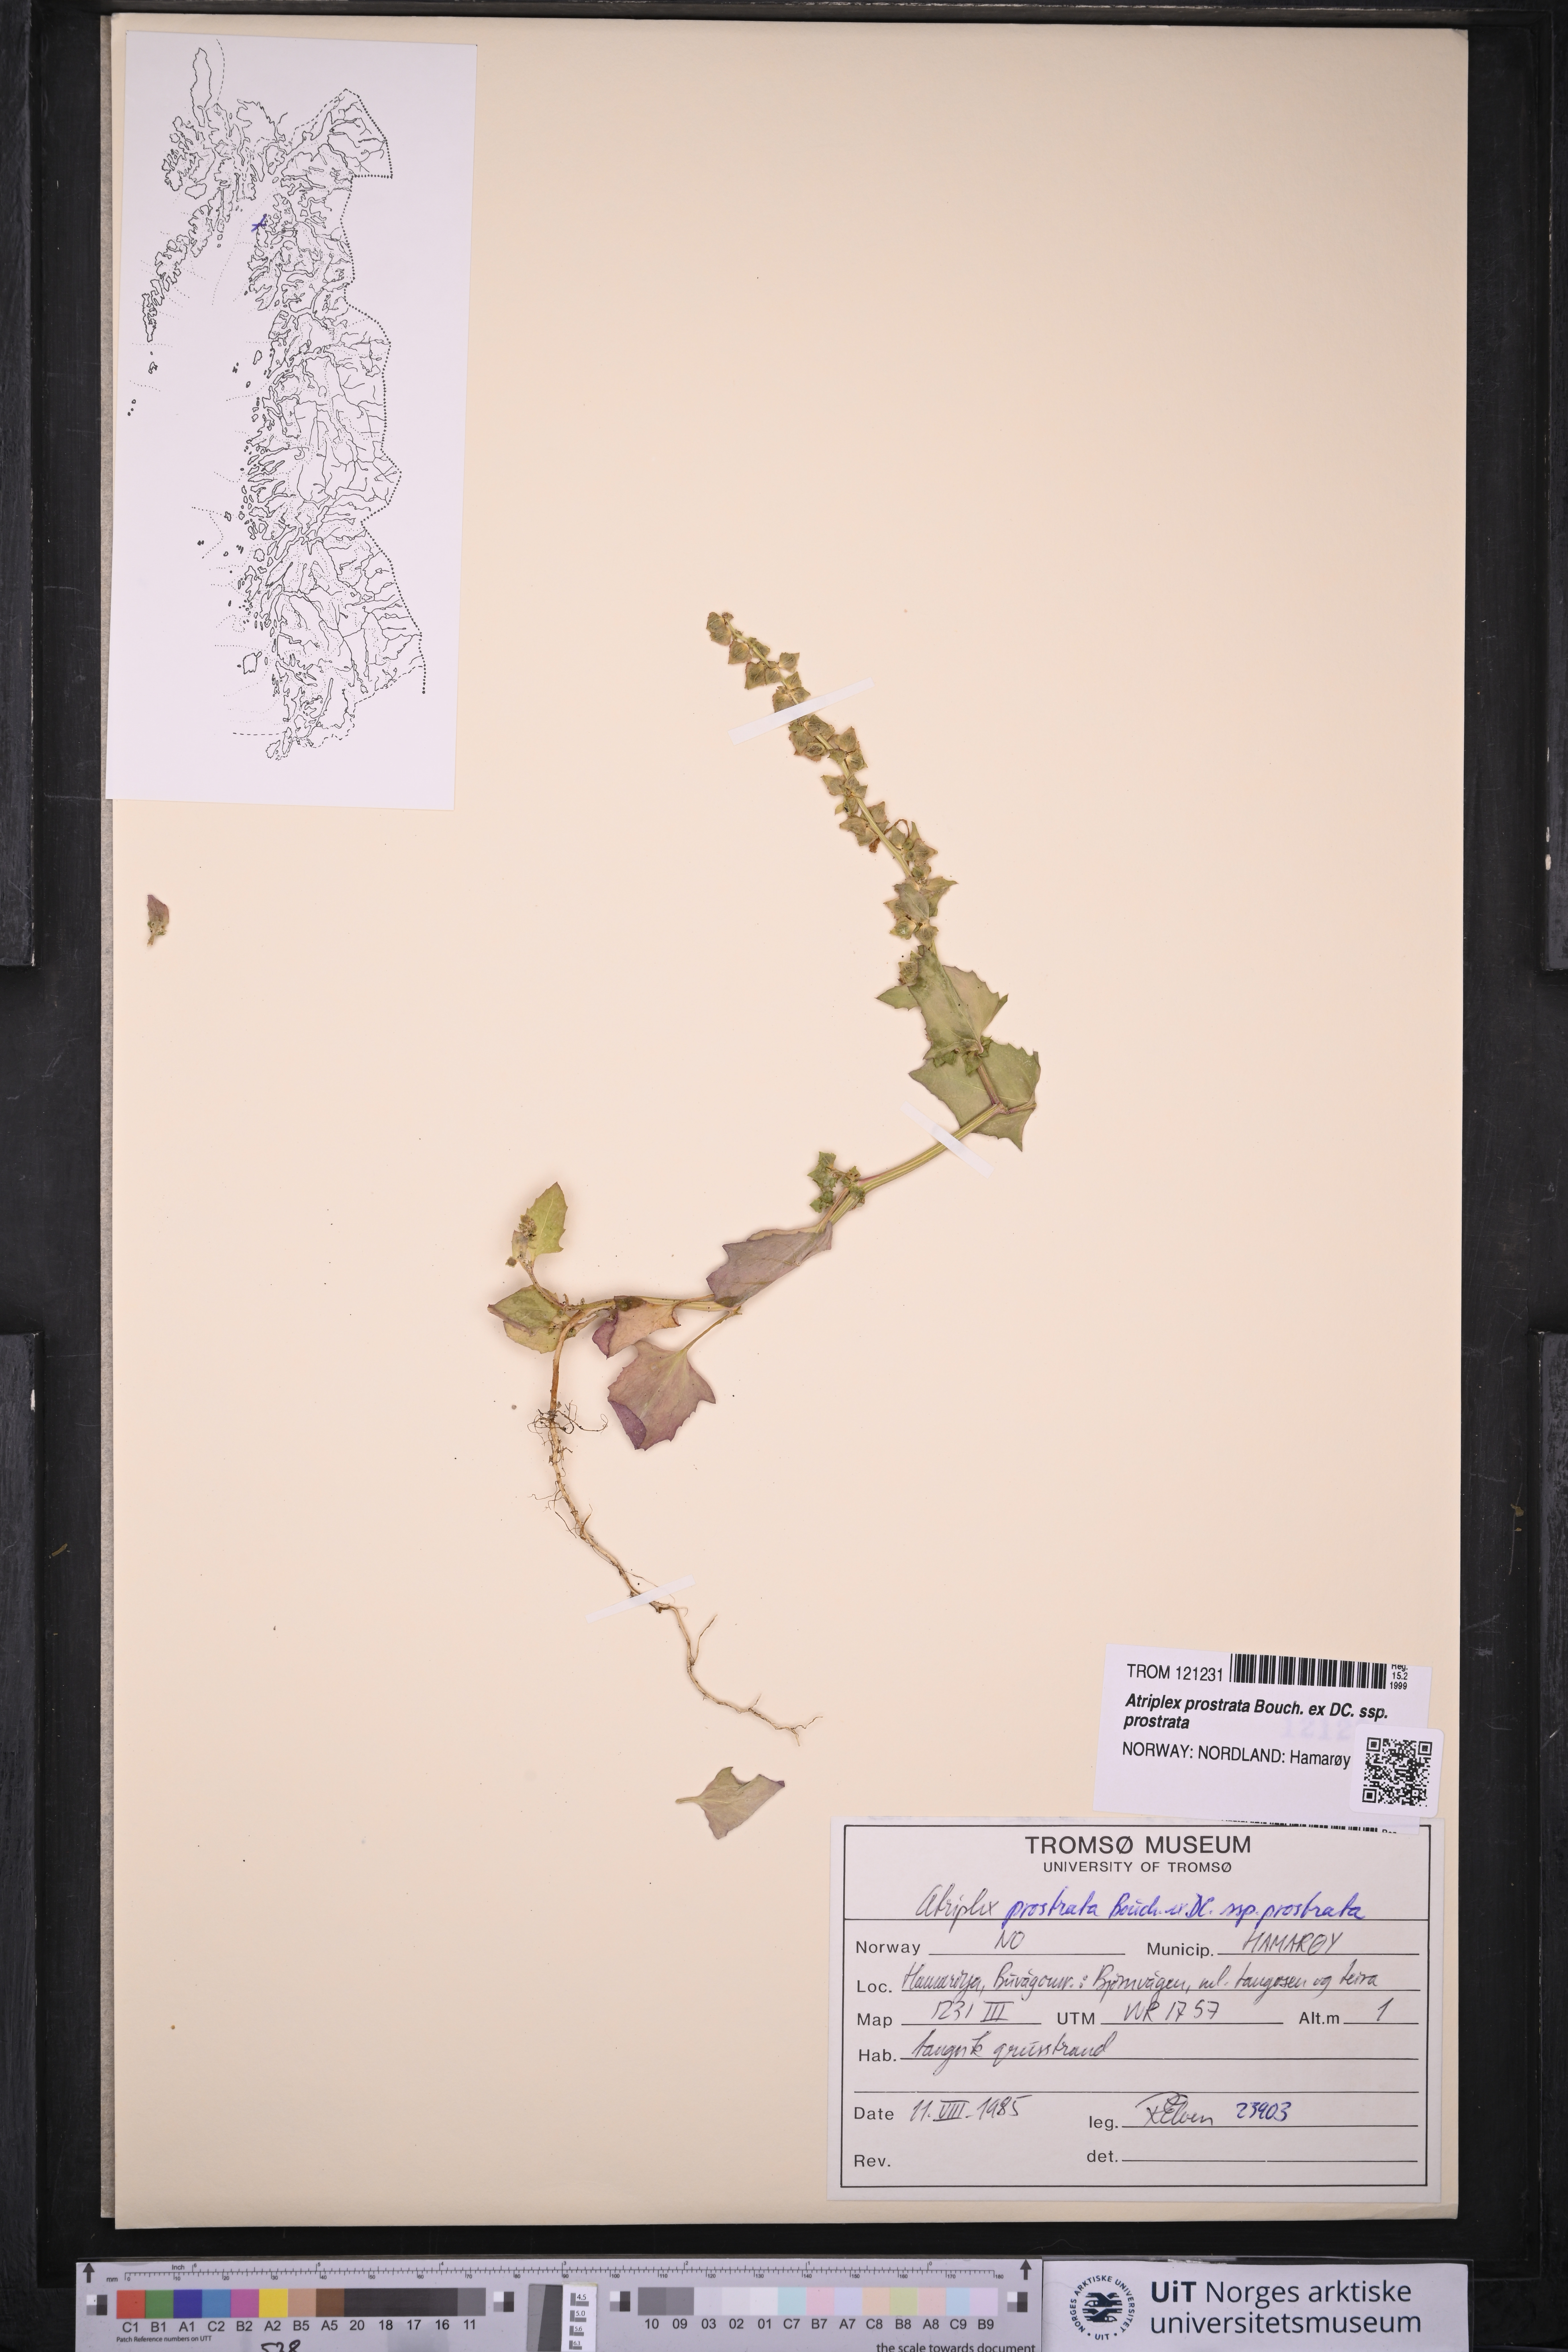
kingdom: Plantae
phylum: Tracheophyta
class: Magnoliopsida
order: Caryophyllales
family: Amaranthaceae
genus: Atriplex
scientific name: Atriplex prostrata
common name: Spear-leaved orache
